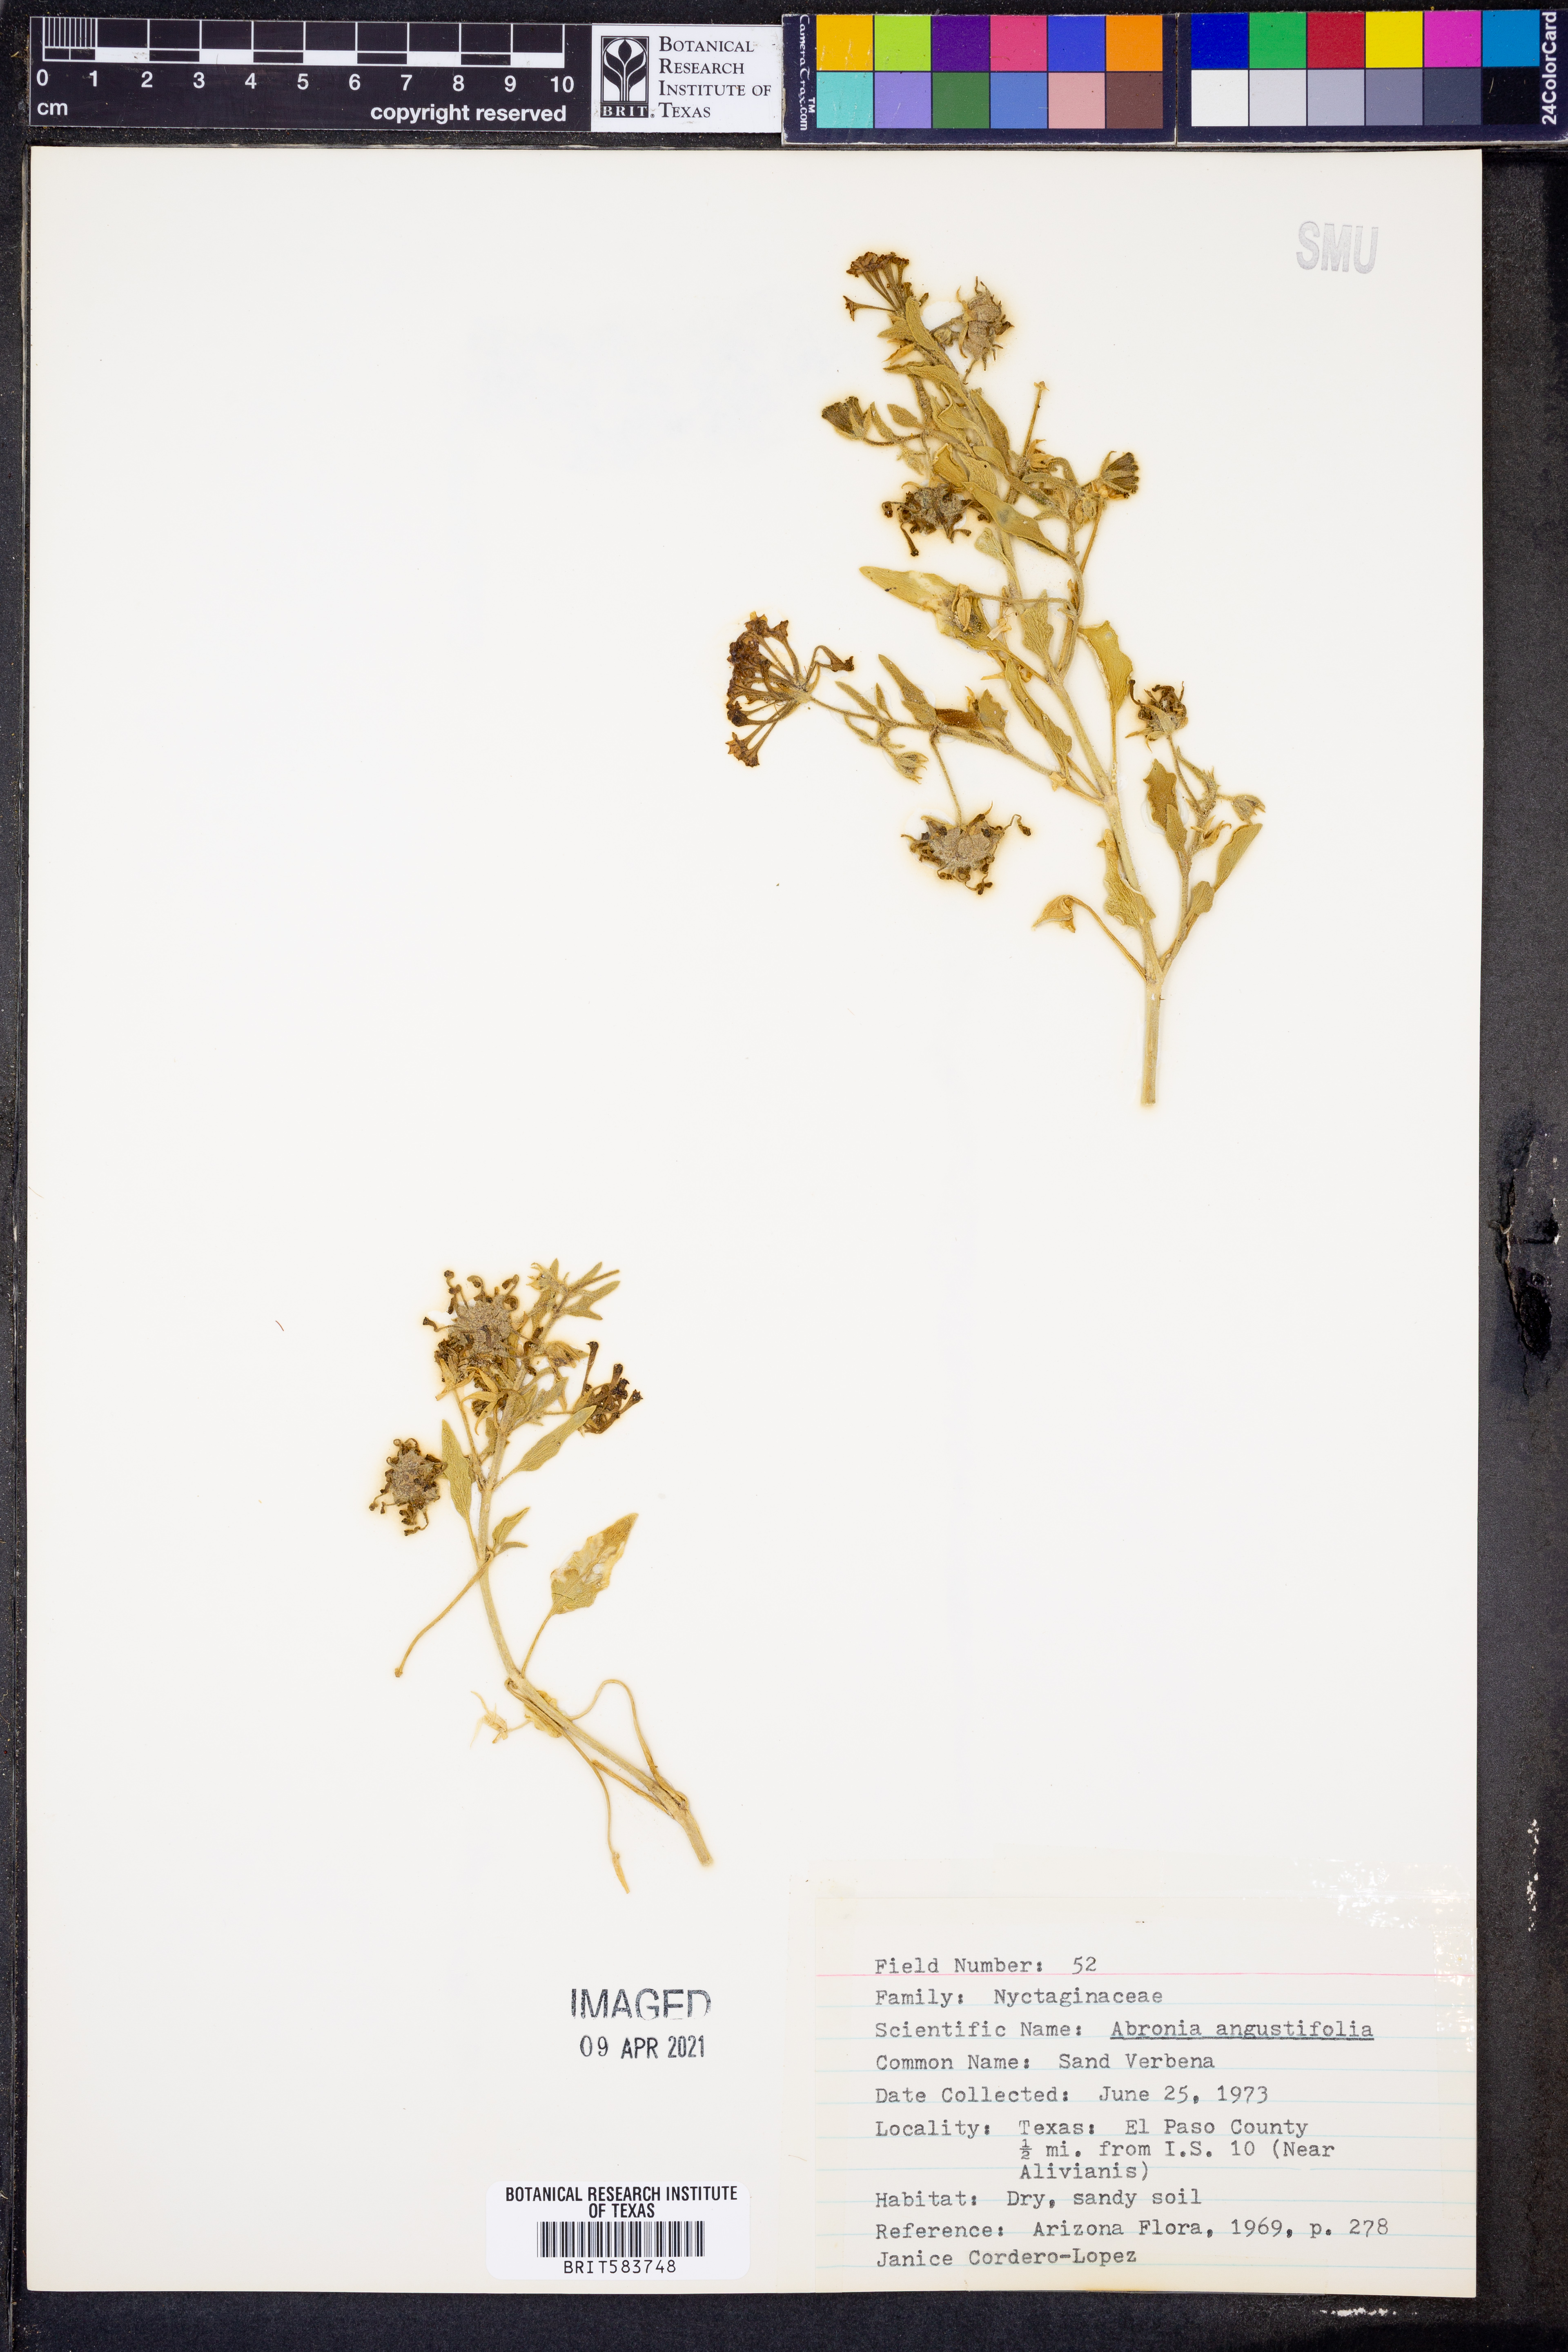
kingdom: Plantae
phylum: Tracheophyta
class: Magnoliopsida
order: Caryophyllales
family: Nyctaginaceae
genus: Abronia
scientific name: Abronia angustifolia
